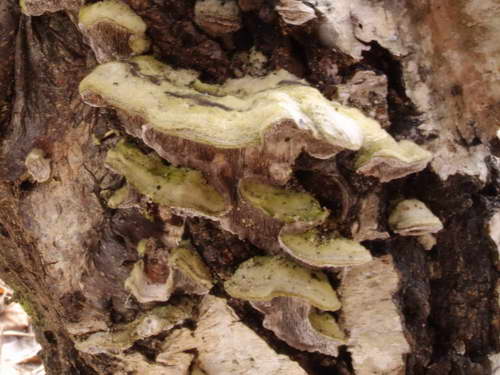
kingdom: Fungi
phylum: Basidiomycota
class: Agaricomycetes
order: Polyporales
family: Cerrenaceae
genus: Cerrena
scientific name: Cerrena unicolor
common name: ensfarvet læderporesvamp
